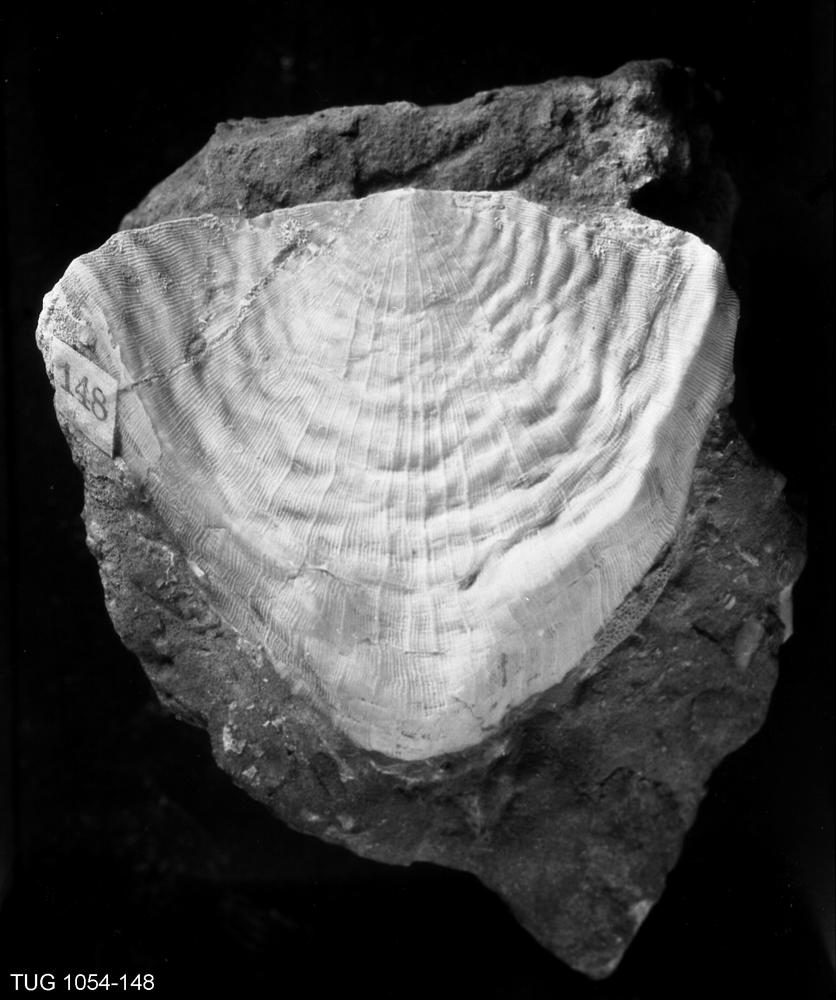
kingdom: Animalia
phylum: Brachiopoda
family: Rafinesquinidae
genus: Kiaeromena
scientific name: Kiaeromena Leptaena estonensis
